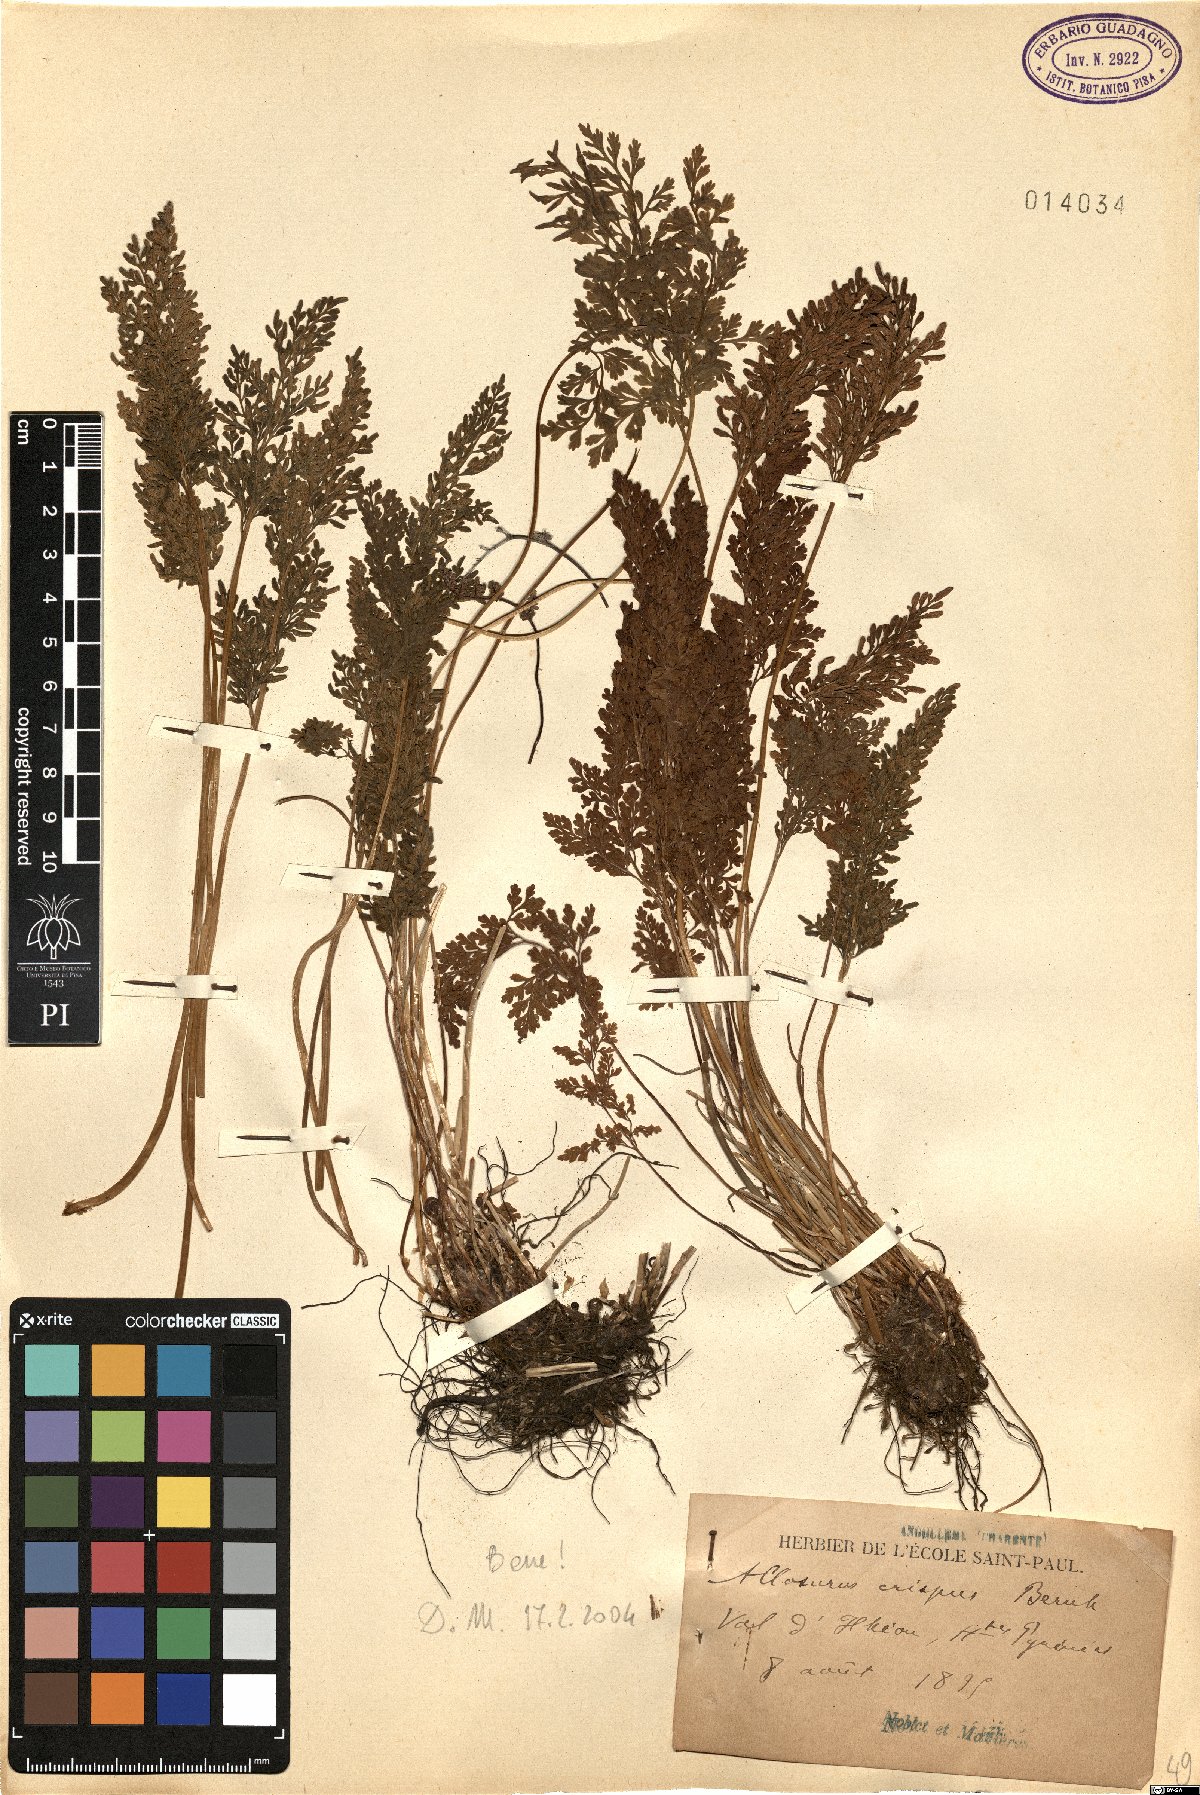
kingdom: Plantae
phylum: Tracheophyta
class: Polypodiopsida
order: Polypodiales
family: Pteridaceae
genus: Cryptogramma
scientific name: Cryptogramma crispa
